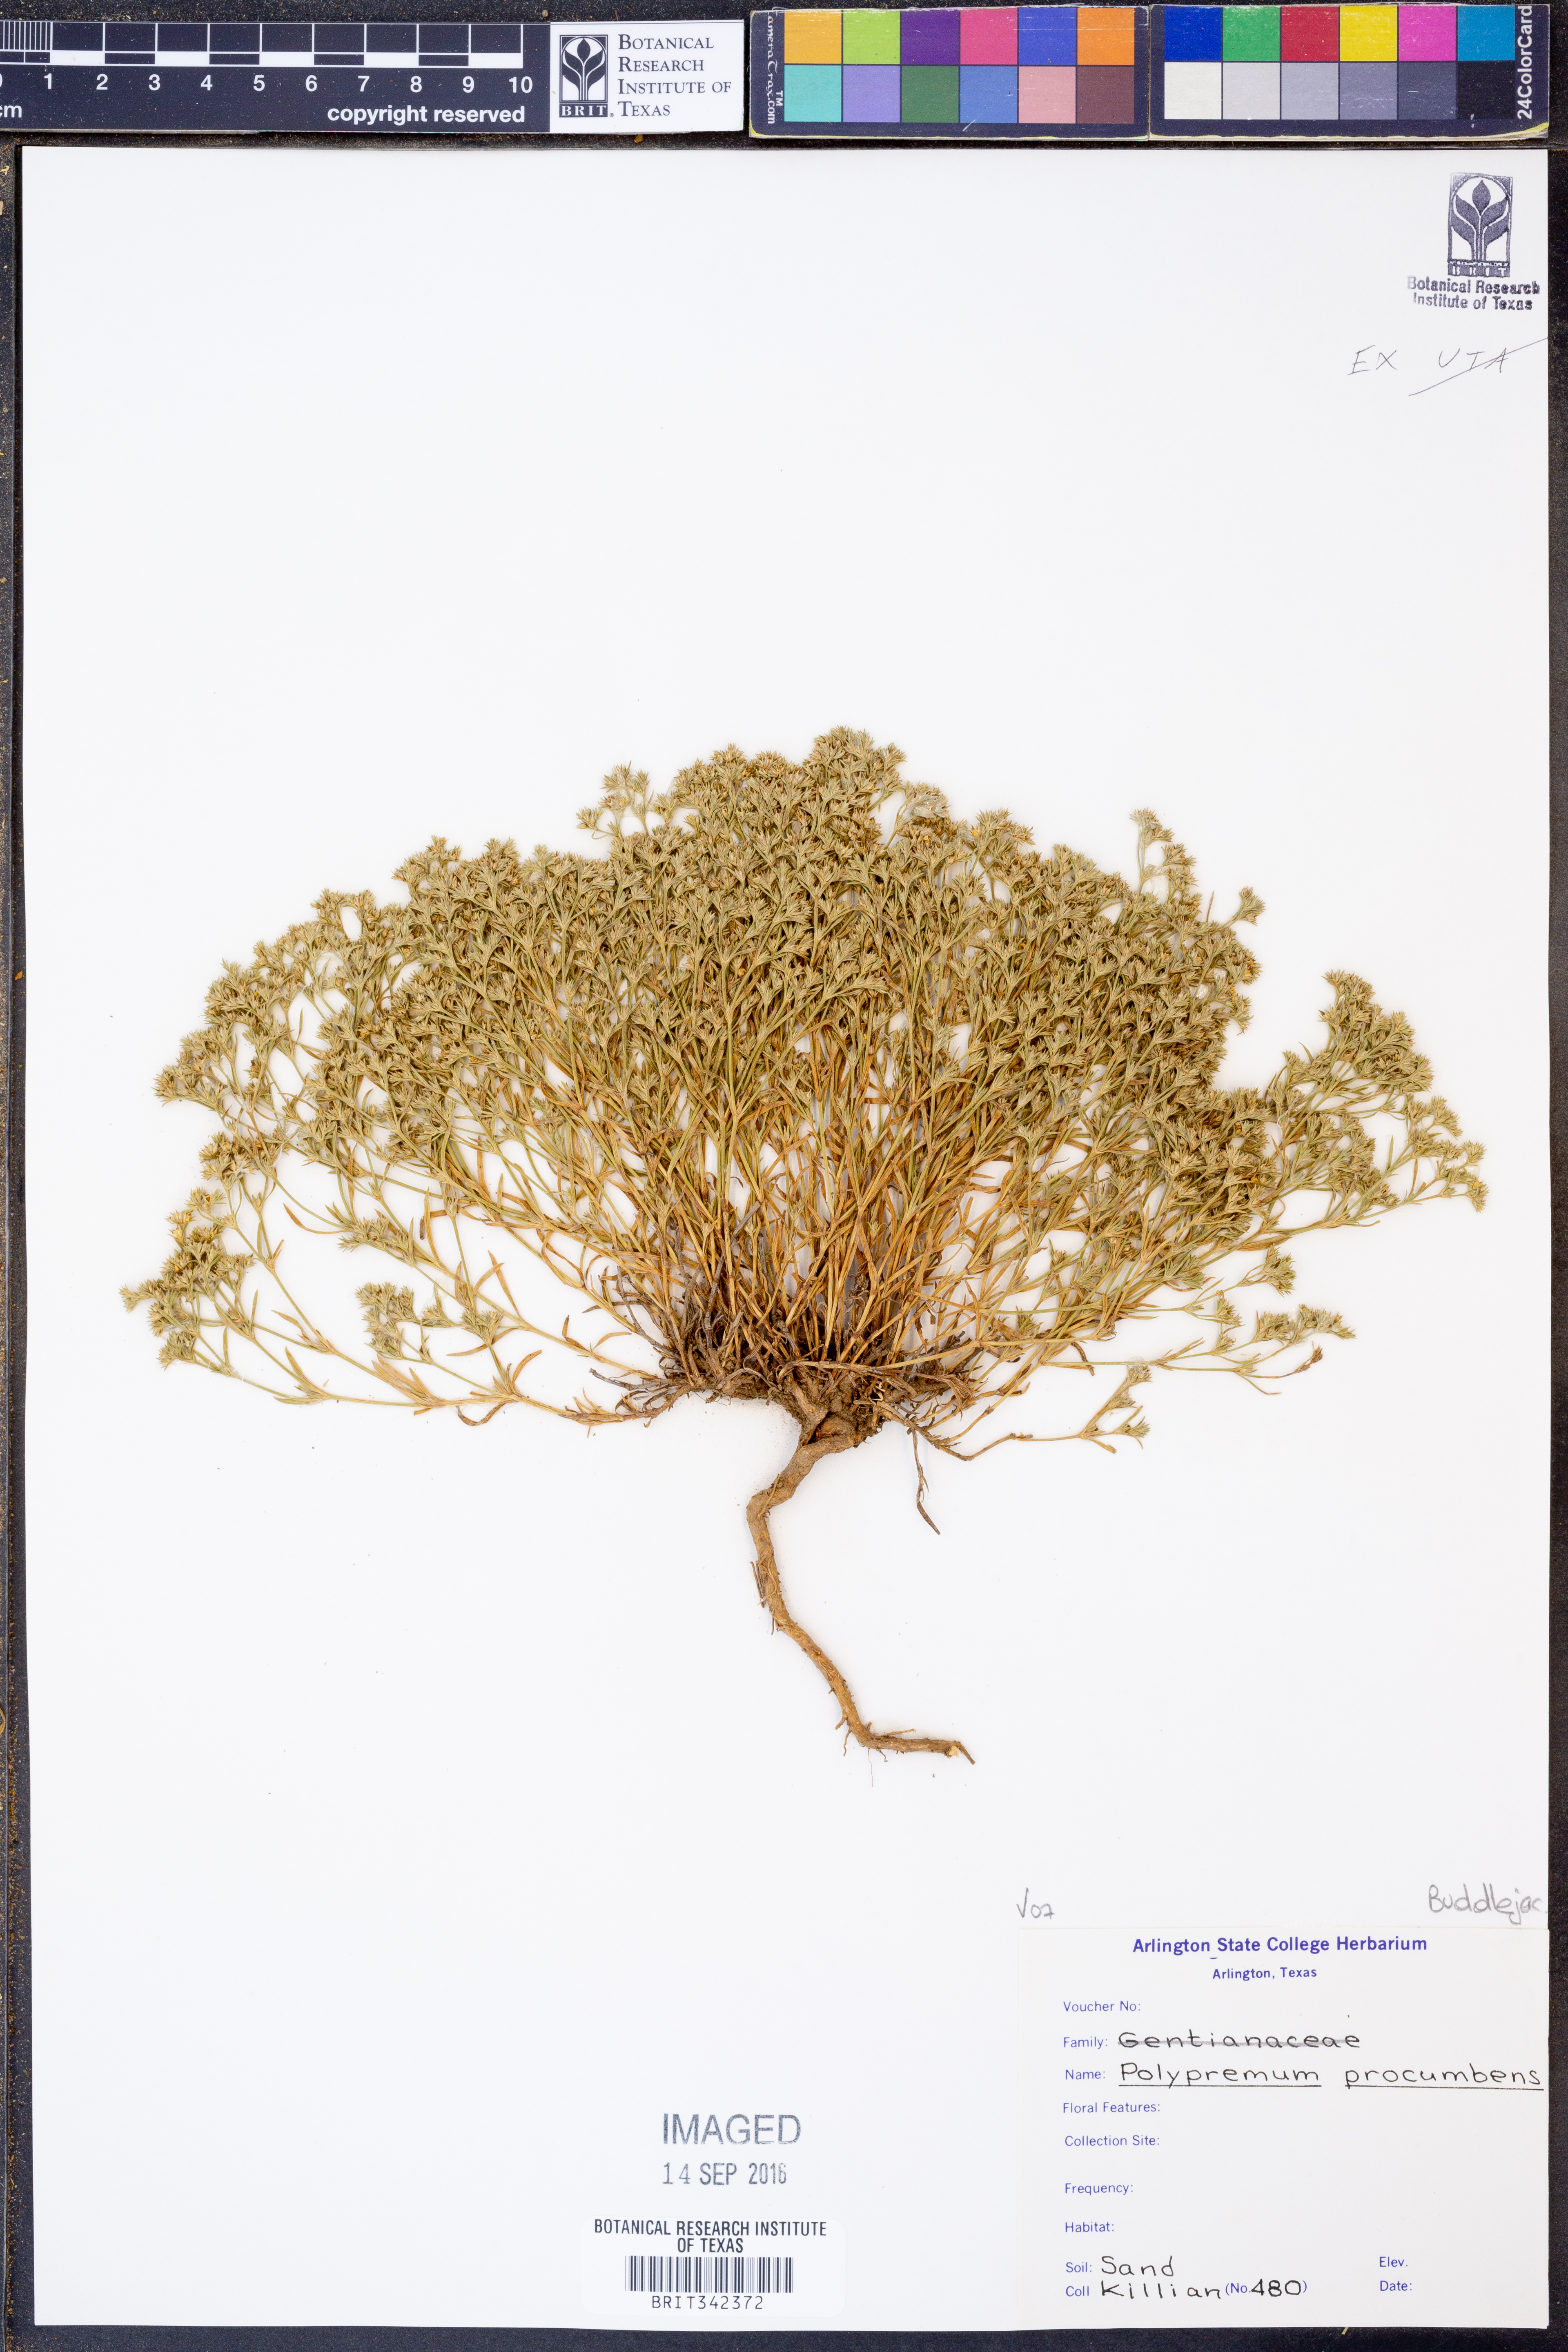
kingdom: Plantae
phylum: Tracheophyta
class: Magnoliopsida
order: Lamiales
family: Tetrachondraceae
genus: Polypremum
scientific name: Polypremum procumbens
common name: Juniper-leaf
